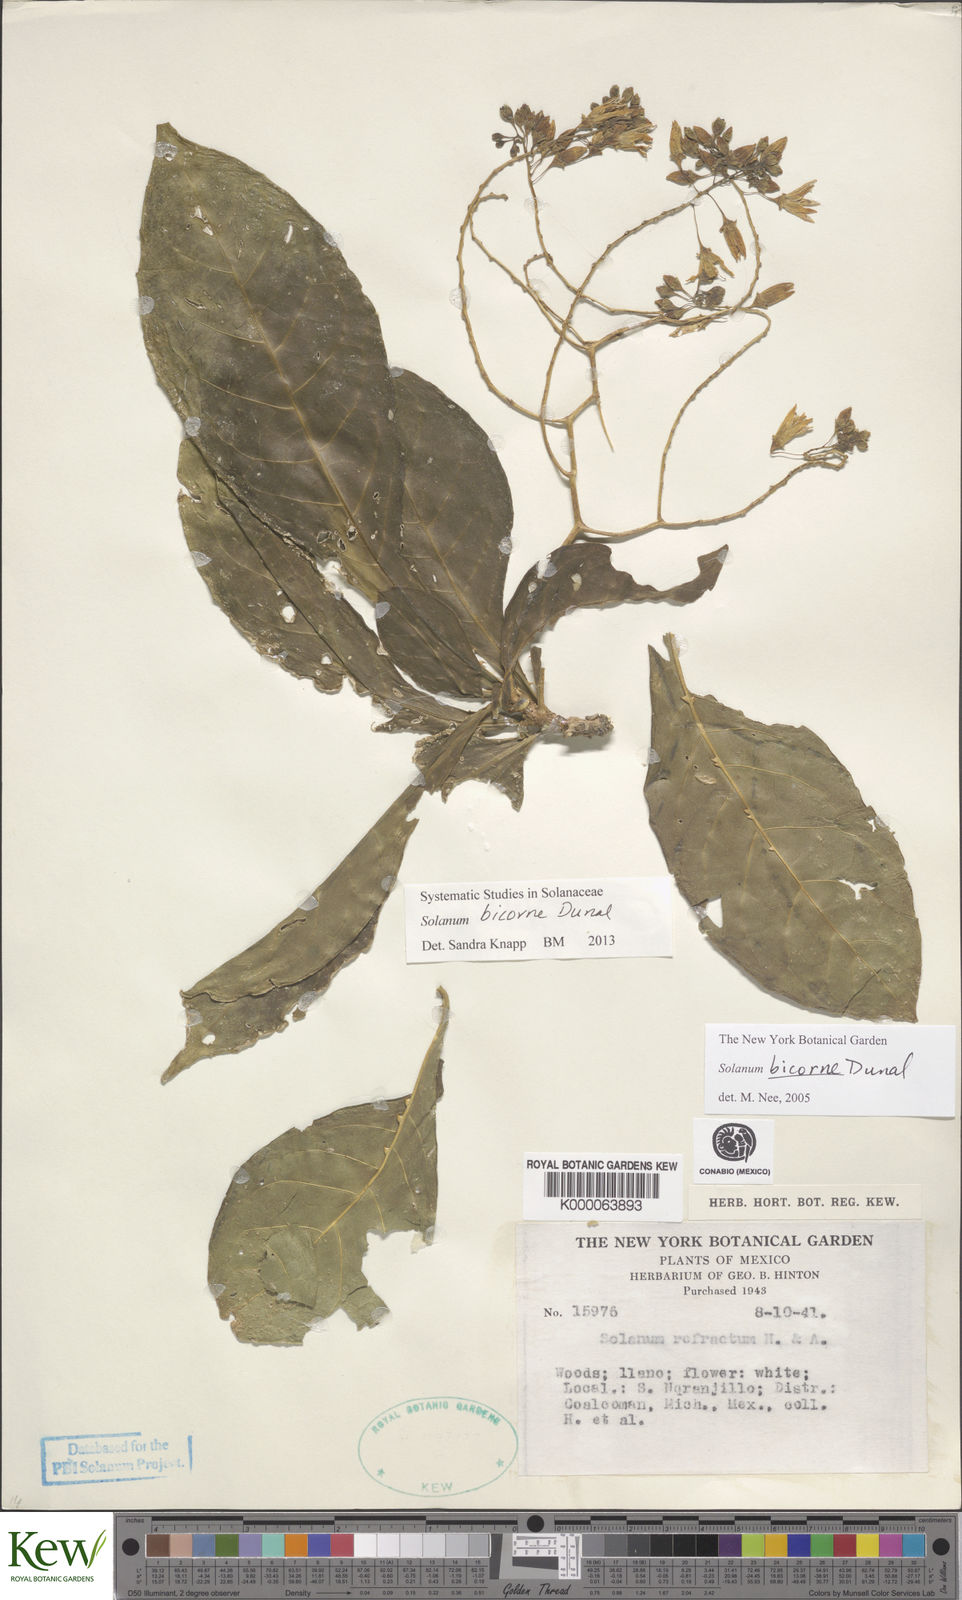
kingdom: Plantae
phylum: Tracheophyta
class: Magnoliopsida
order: Solanales
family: Solanaceae
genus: Solanum
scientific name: Solanum refractum
